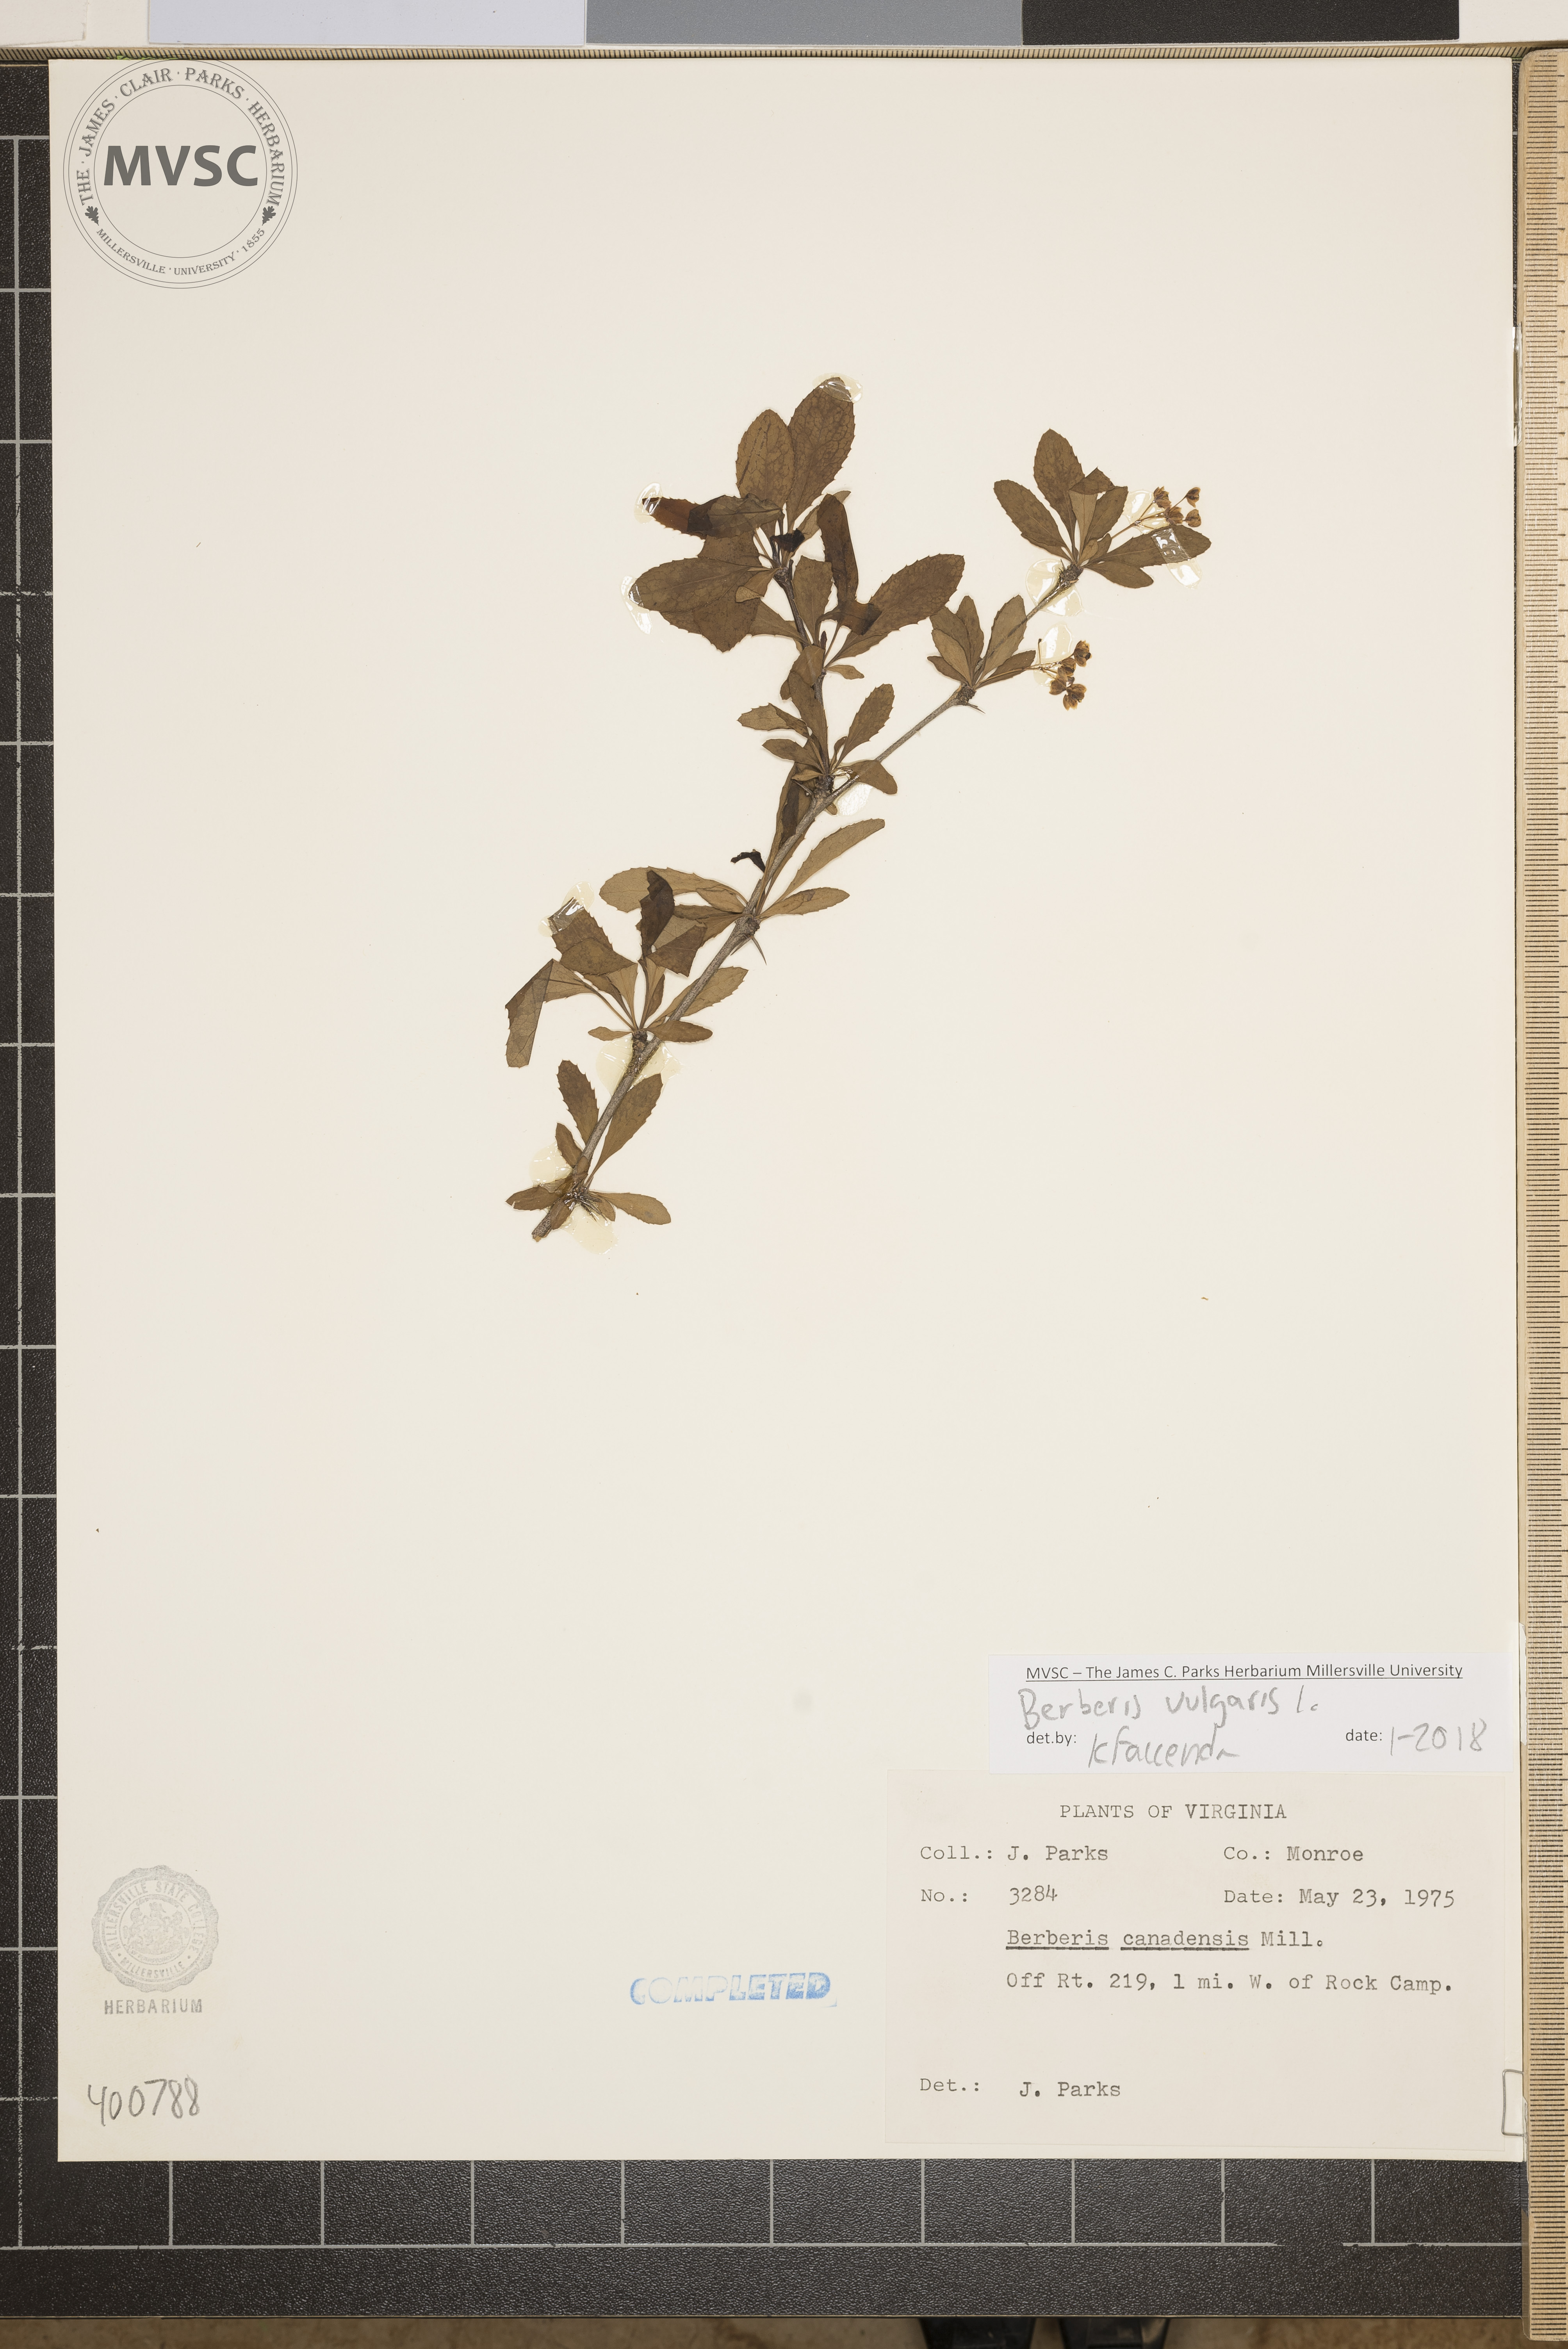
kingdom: Plantae
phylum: Tracheophyta
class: Magnoliopsida
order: Ranunculales
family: Berberidaceae
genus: Berberis
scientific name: Berberis vulgaris
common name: barberry
